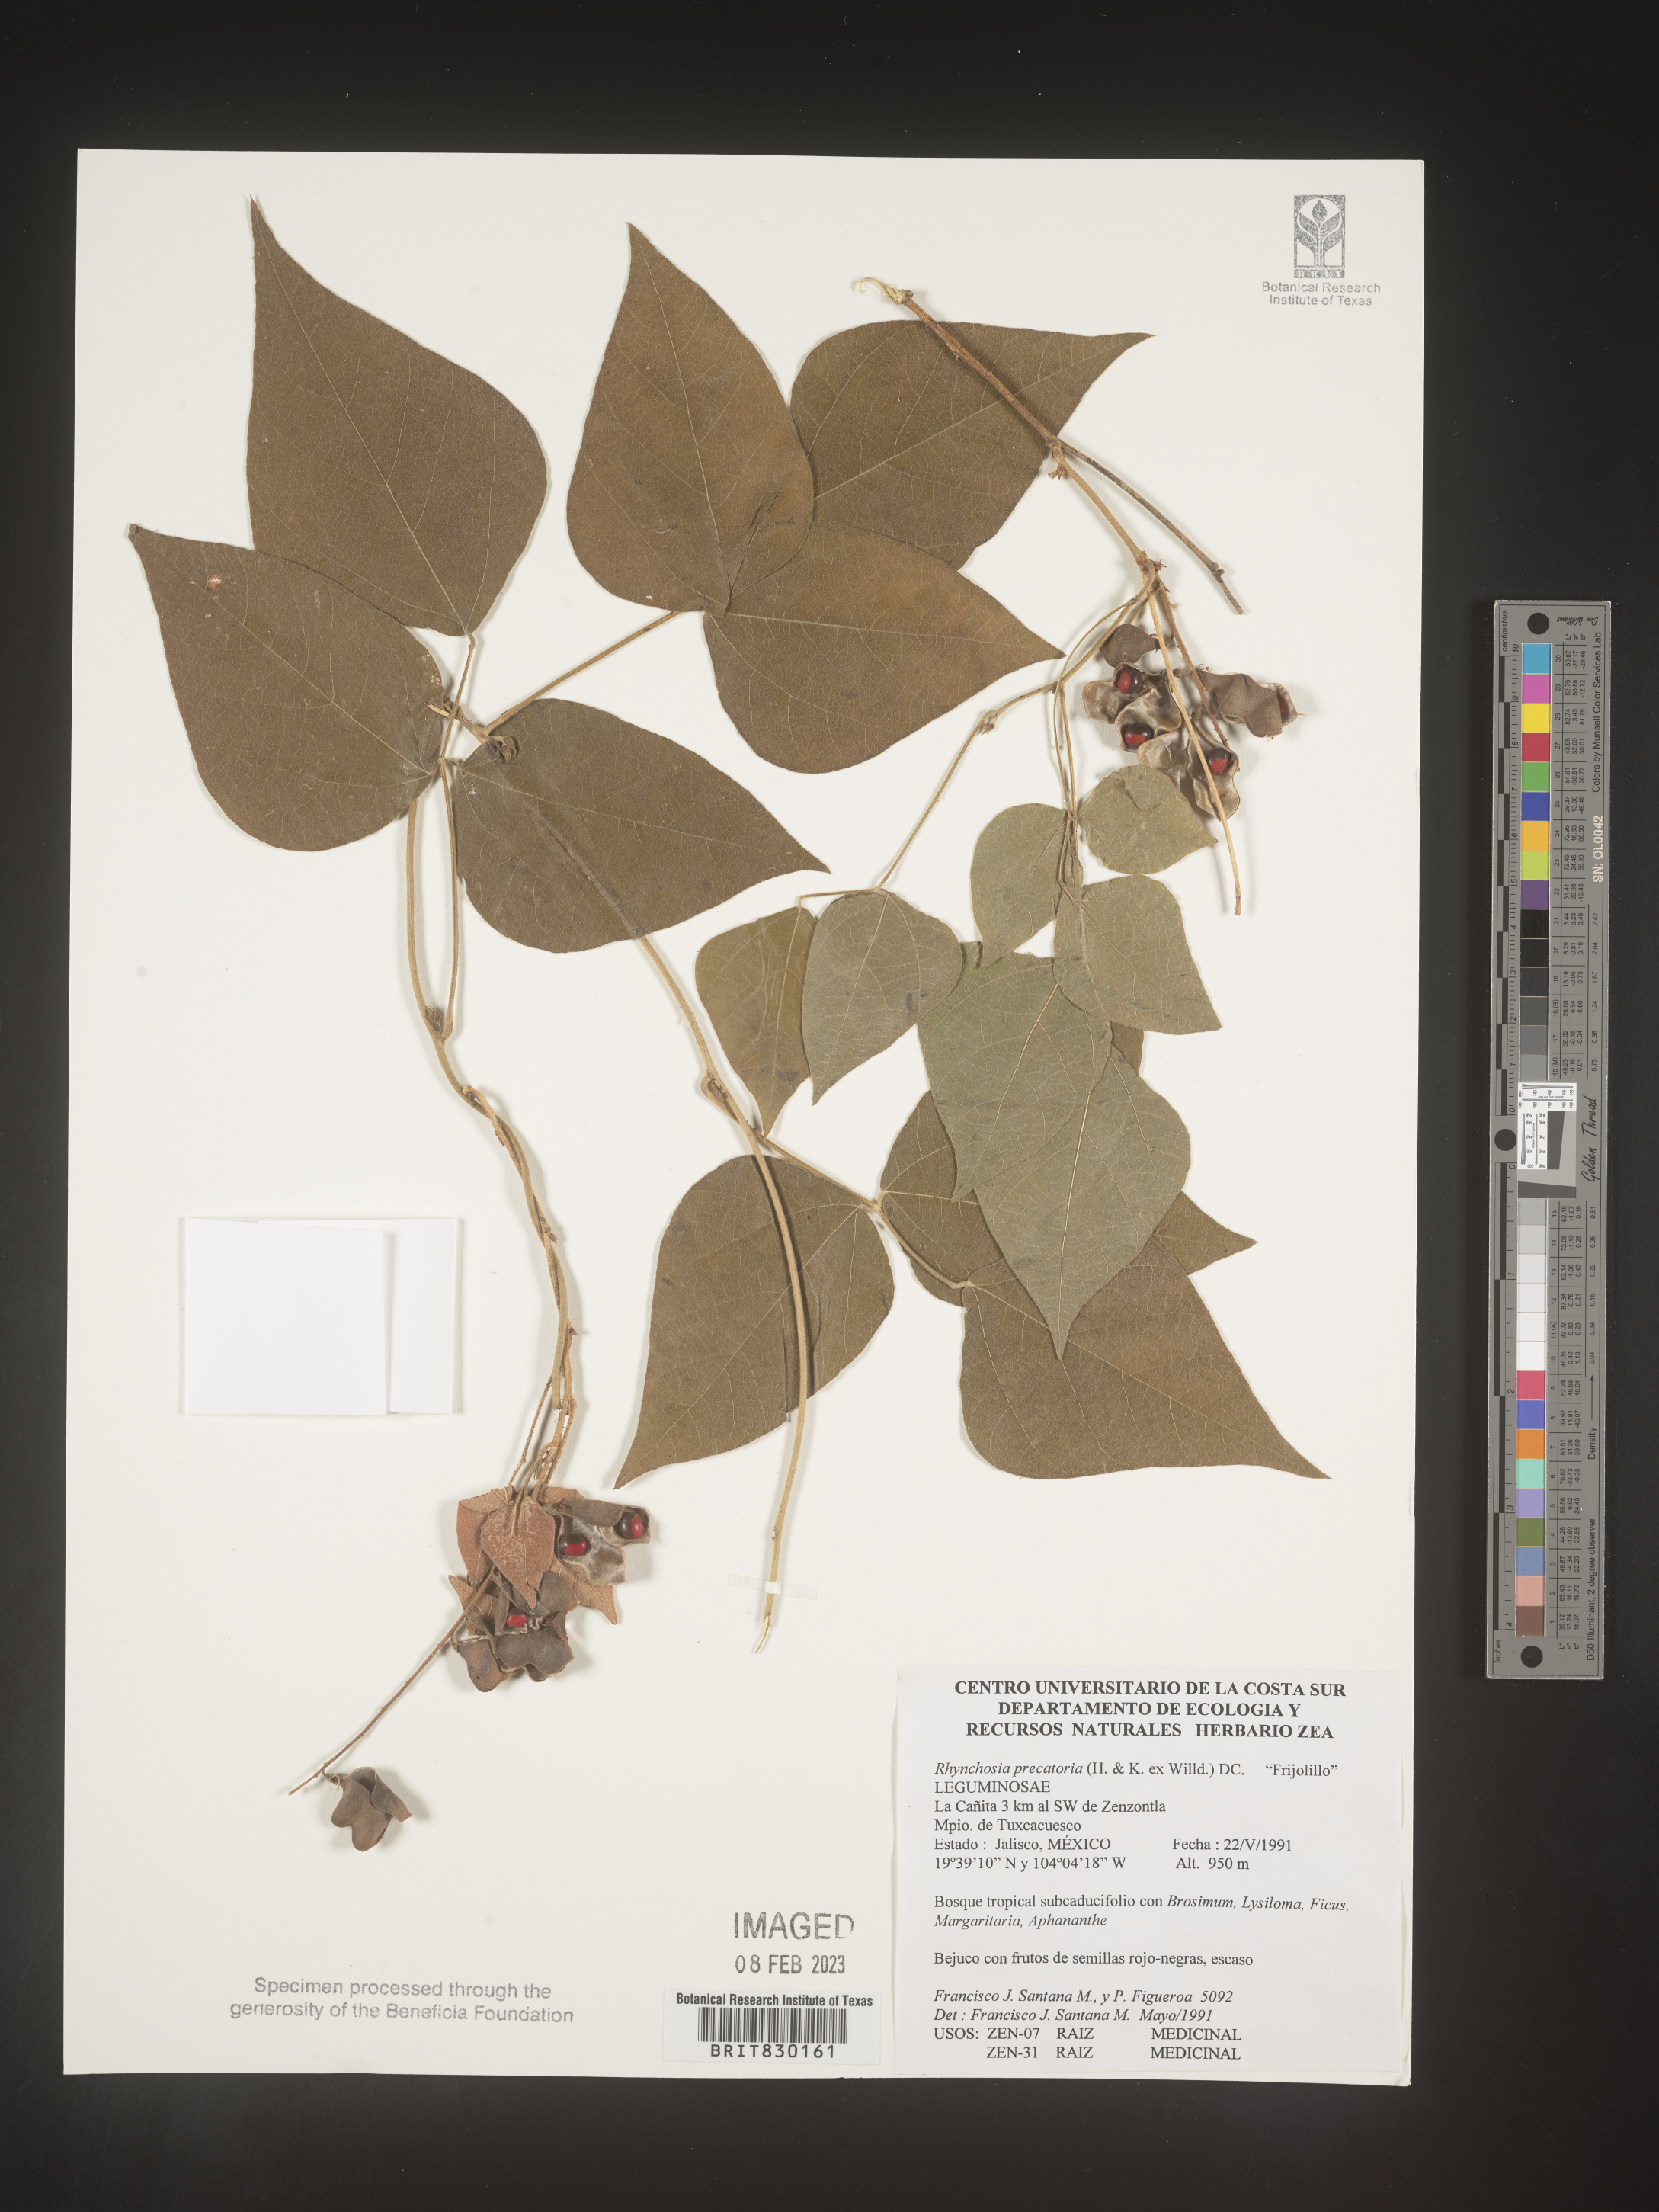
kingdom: Plantae
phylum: Tracheophyta
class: Magnoliopsida
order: Fabales
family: Fabaceae
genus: Rhynchosia
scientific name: Rhynchosia
